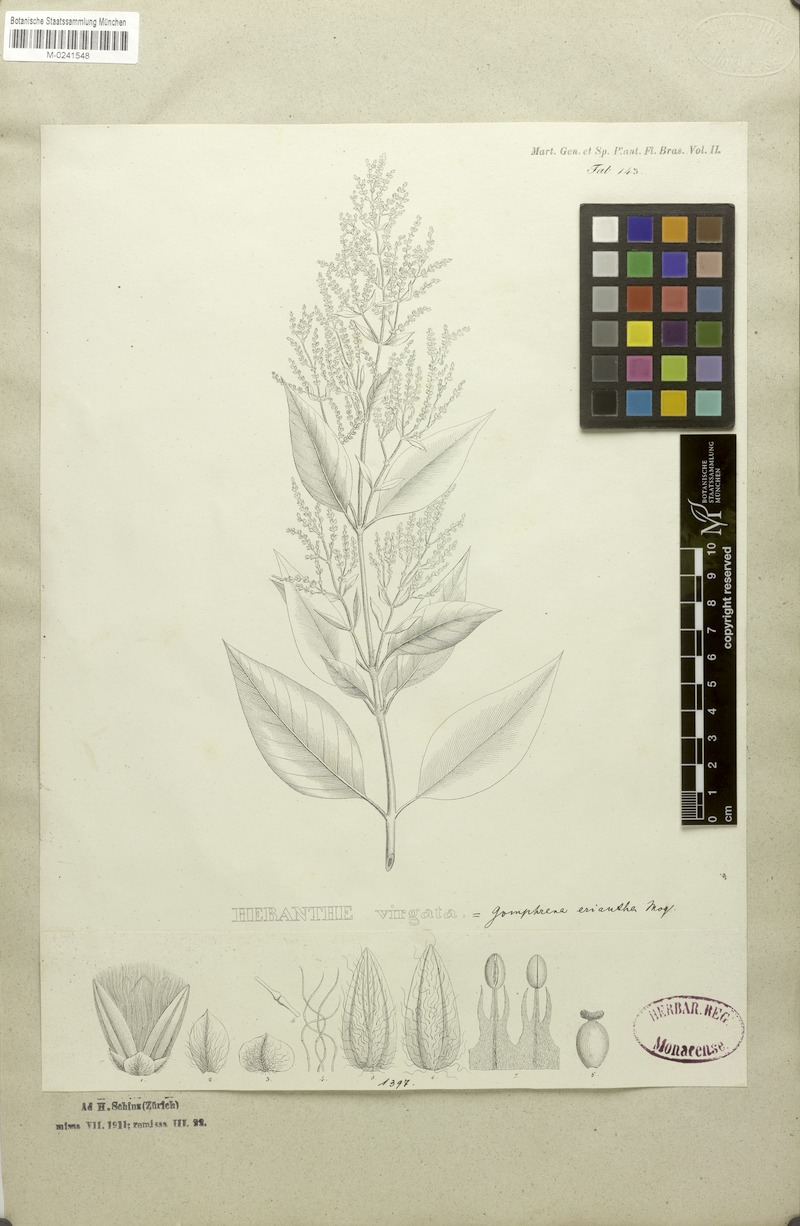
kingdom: Plantae
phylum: Tracheophyta
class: Magnoliopsida
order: Caryophyllales
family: Amaranthaceae
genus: Hebanthe
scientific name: Hebanthe erianthos
